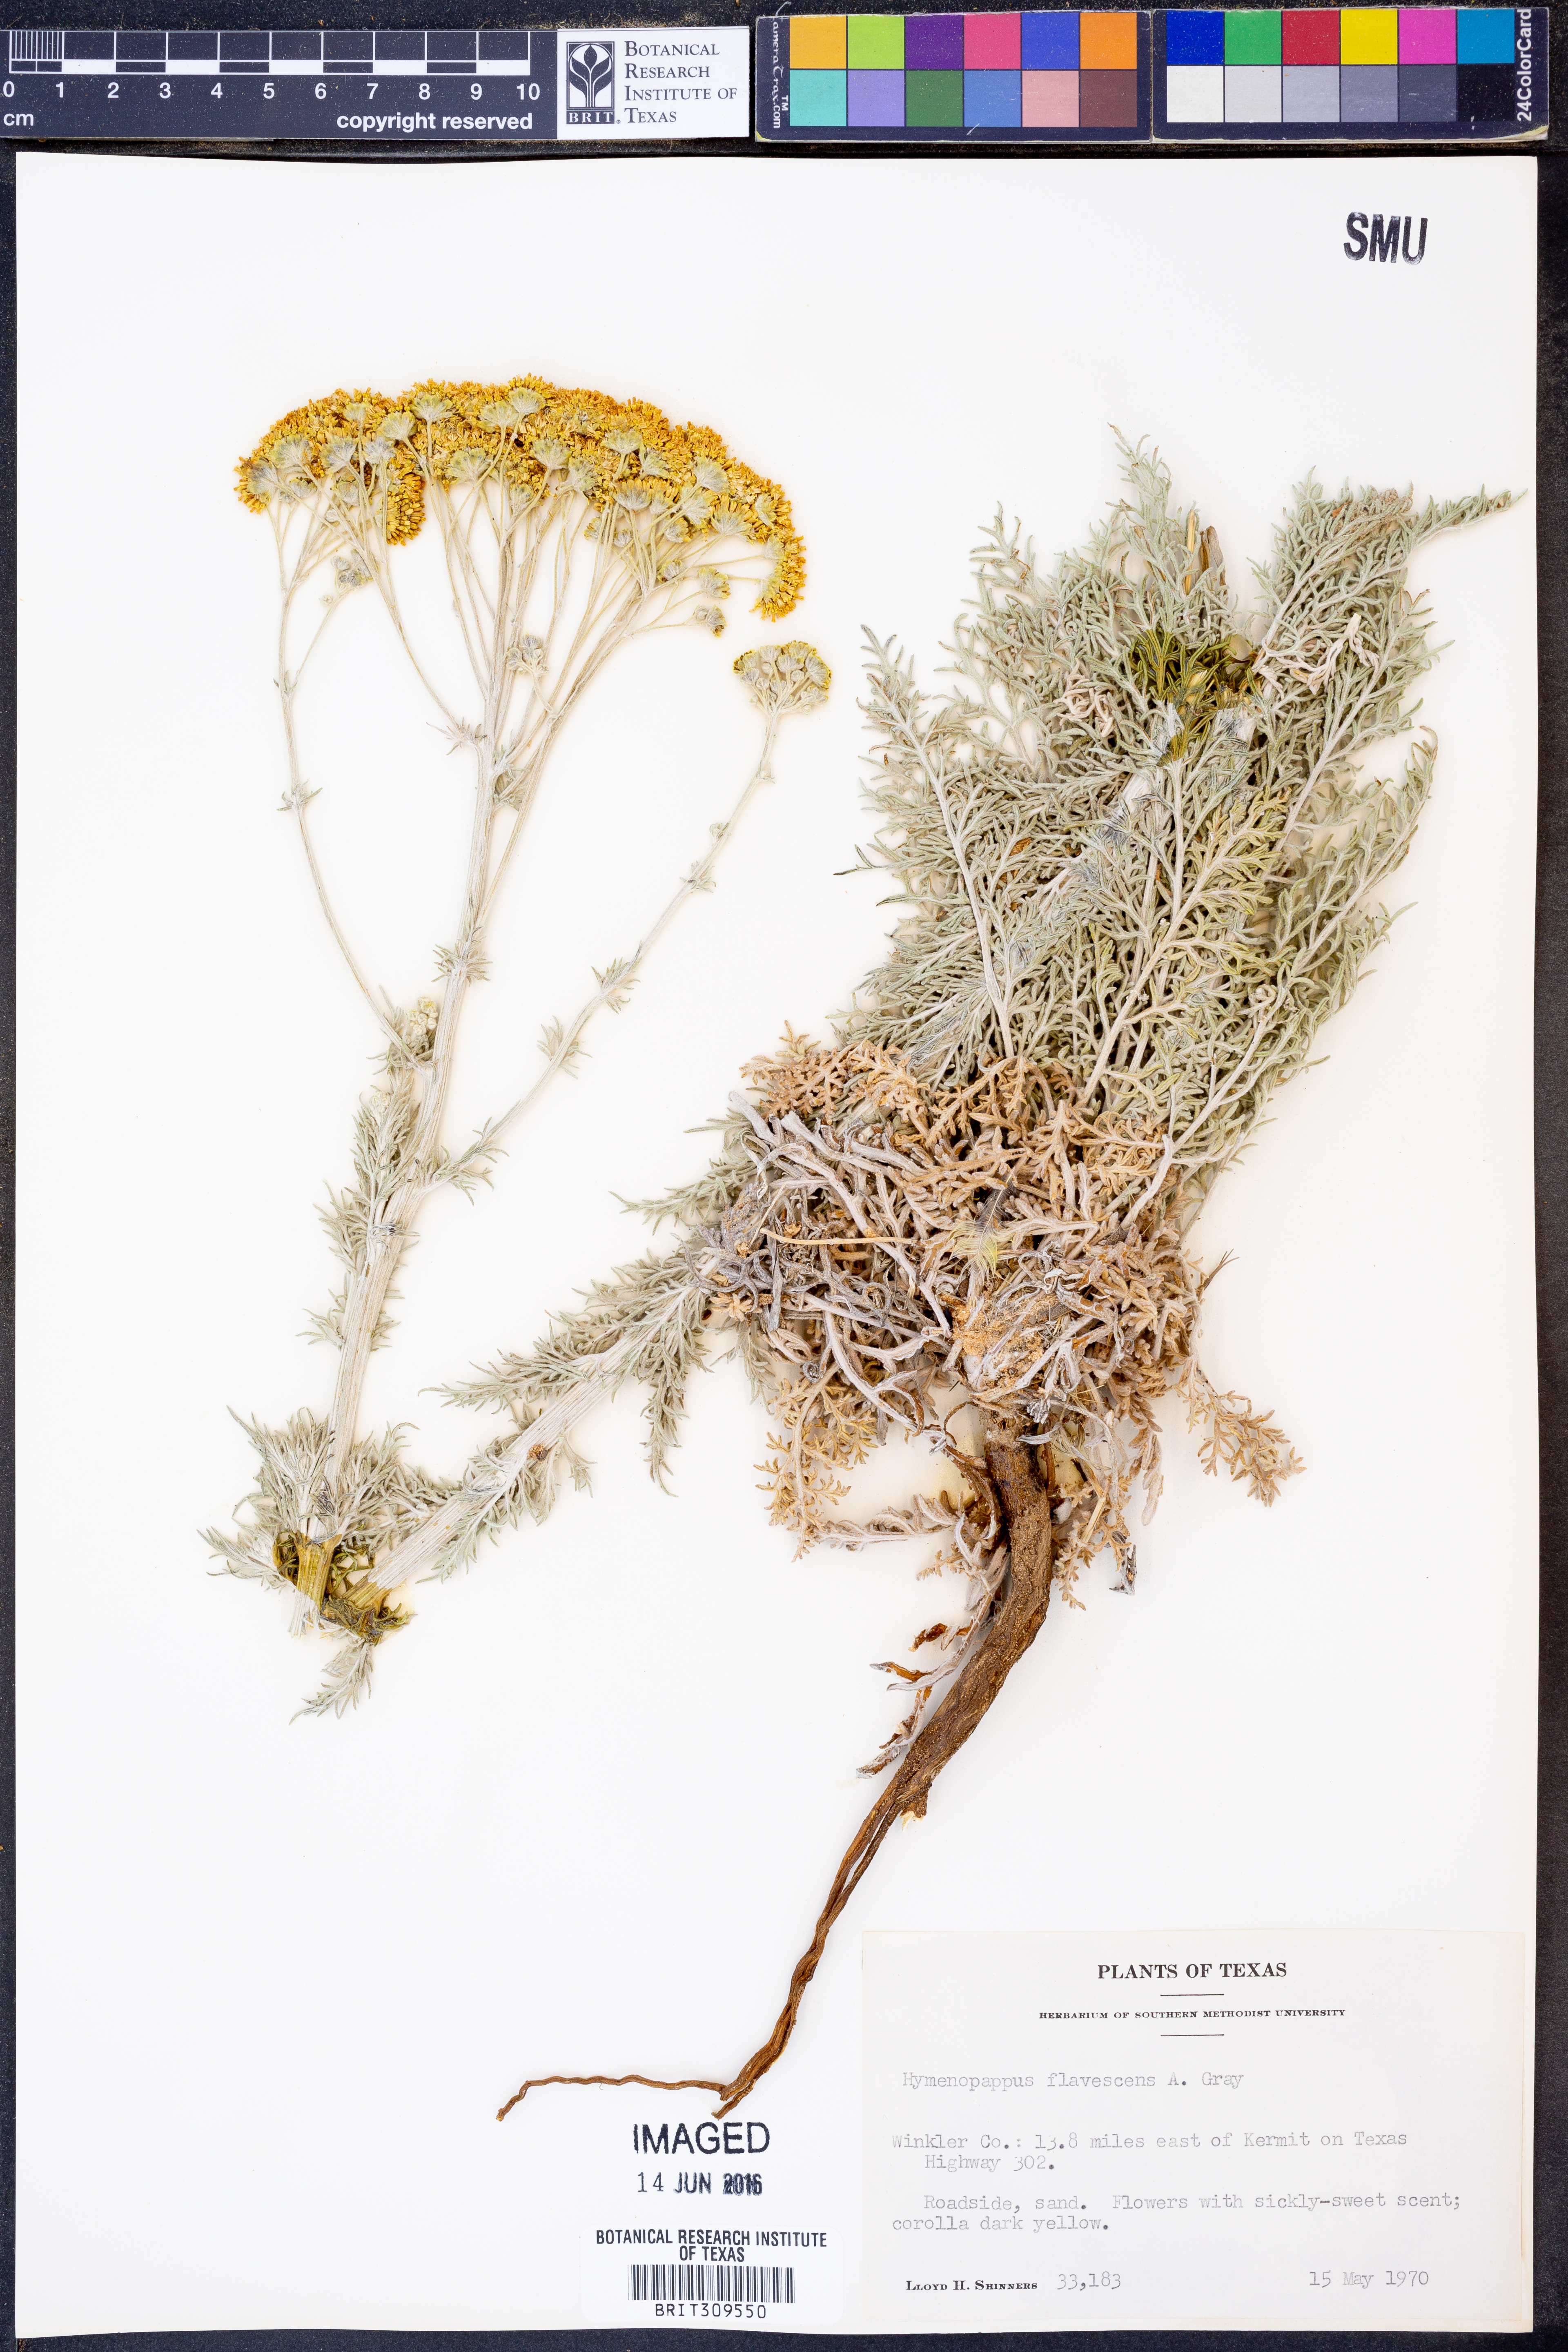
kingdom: Plantae
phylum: Tracheophyta
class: Magnoliopsida
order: Asterales
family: Asteraceae
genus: Hymenopappus
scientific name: Hymenopappus flavescens
